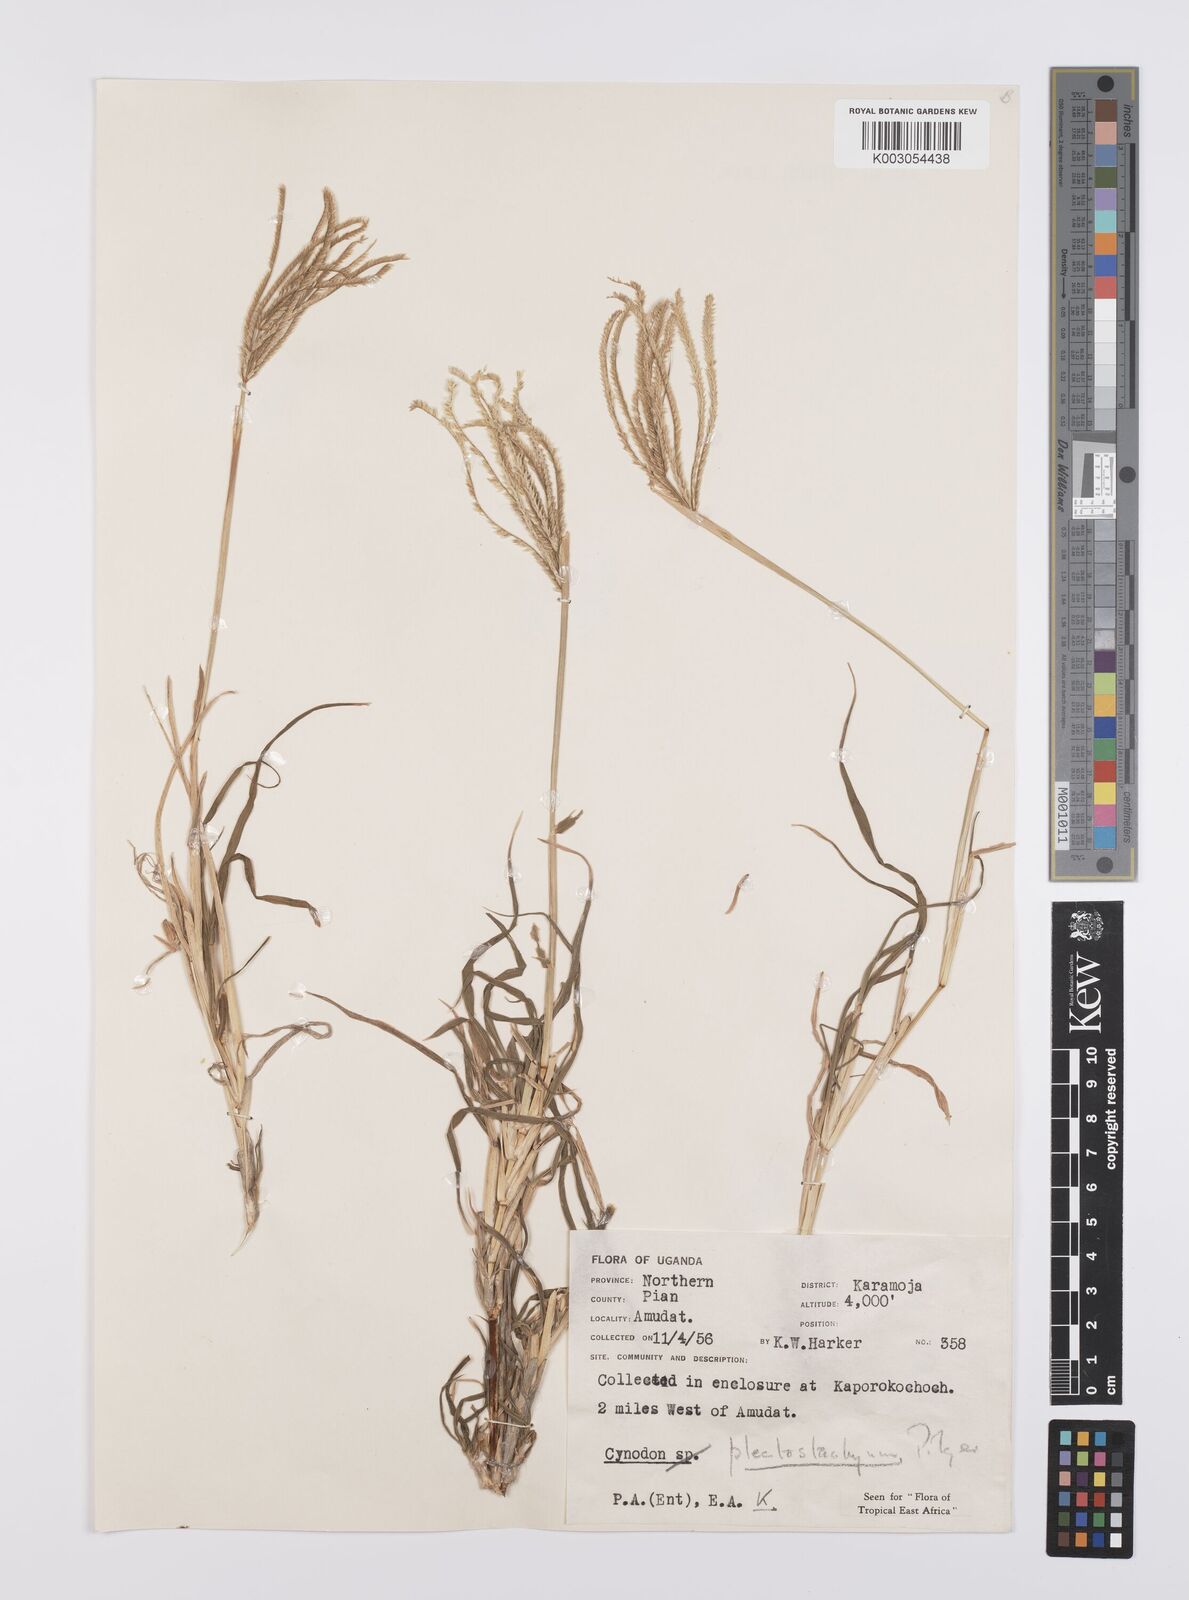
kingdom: Plantae
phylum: Tracheophyta
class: Liliopsida
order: Poales
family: Poaceae
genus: Cynodon
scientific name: Cynodon plectostachyus
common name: Stargrass
